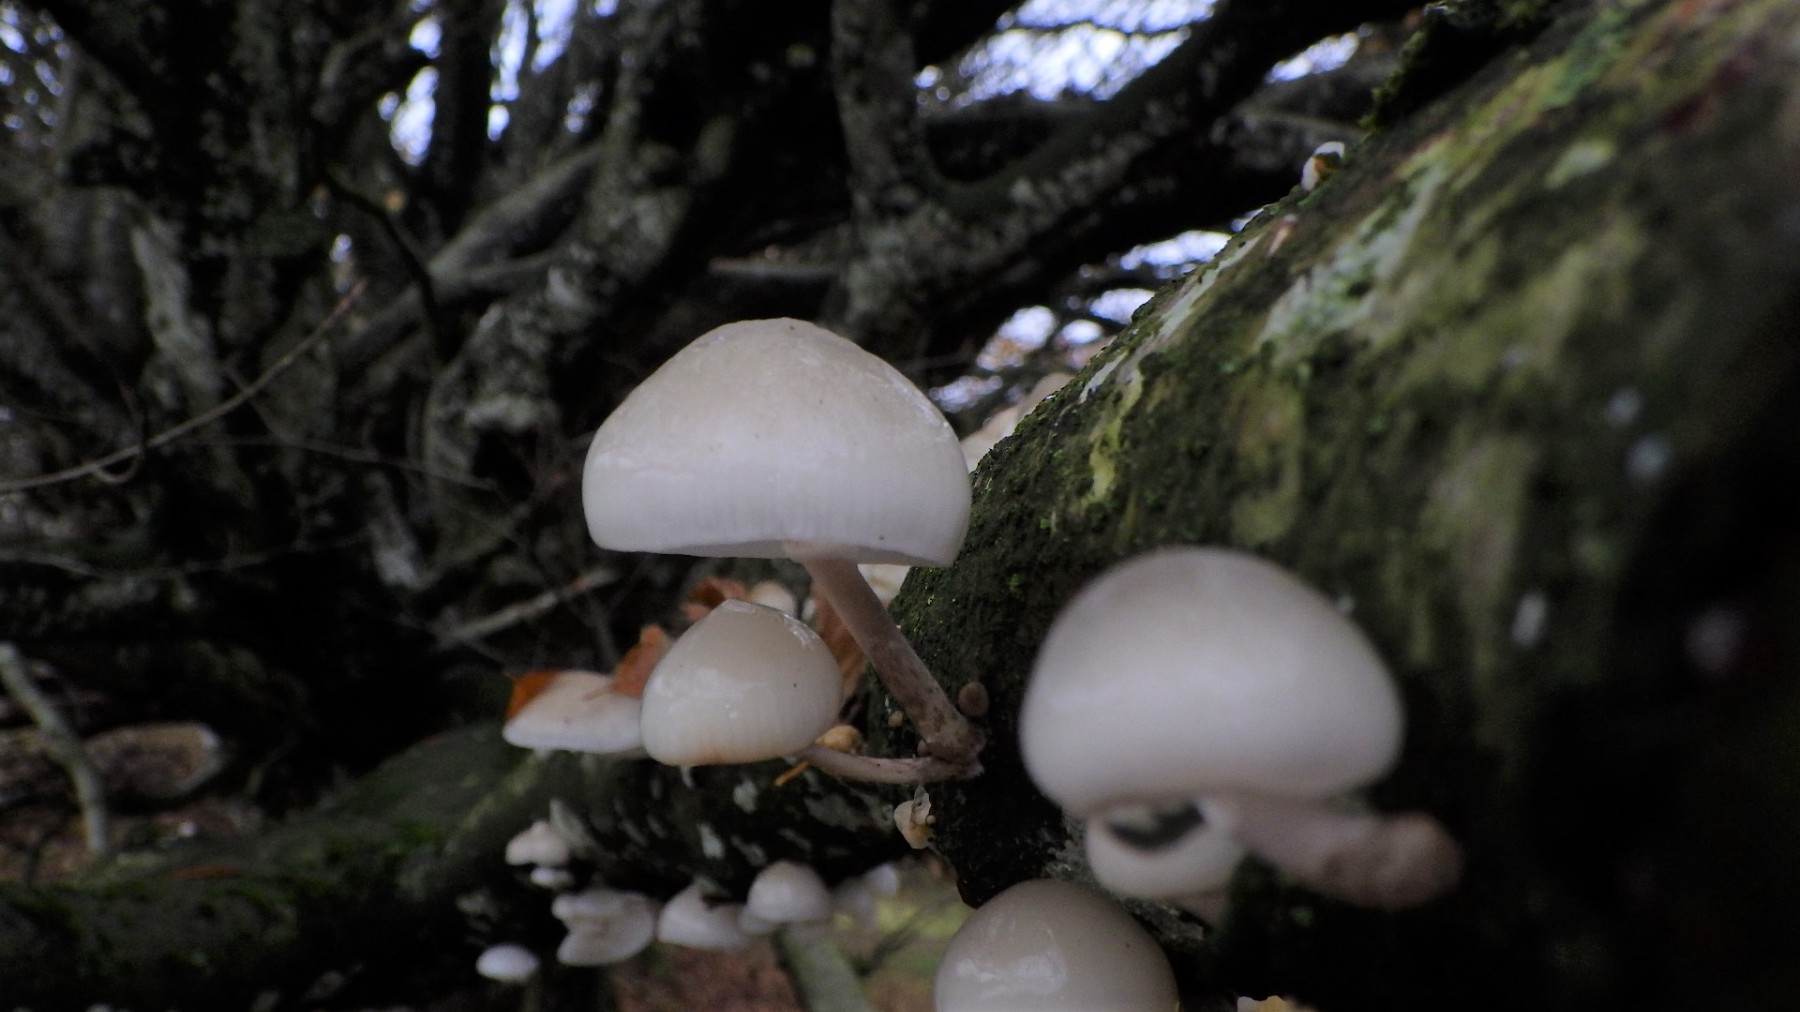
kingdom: Fungi
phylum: Basidiomycota
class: Agaricomycetes
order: Agaricales
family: Physalacriaceae
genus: Mucidula
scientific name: Mucidula mucida
